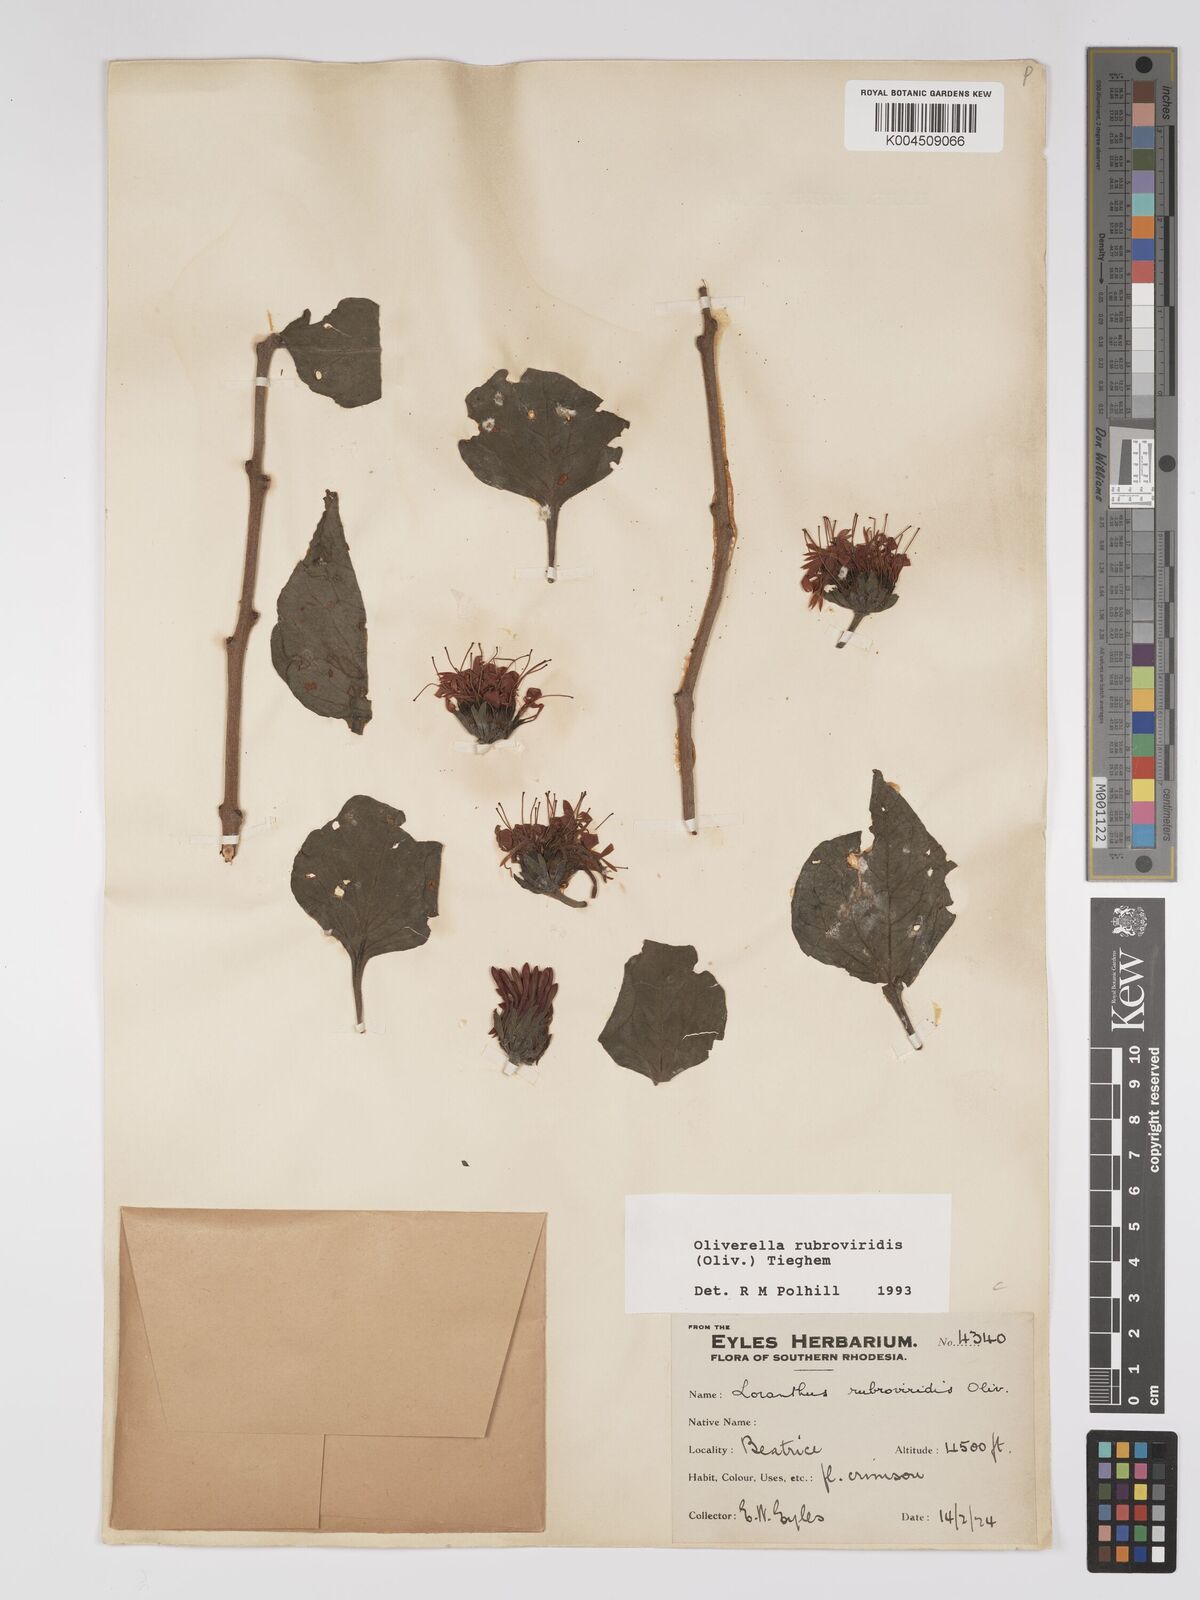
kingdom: Plantae
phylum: Tracheophyta
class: Magnoliopsida
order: Santalales
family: Loranthaceae
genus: Oliverella
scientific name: Oliverella rubroviridis
